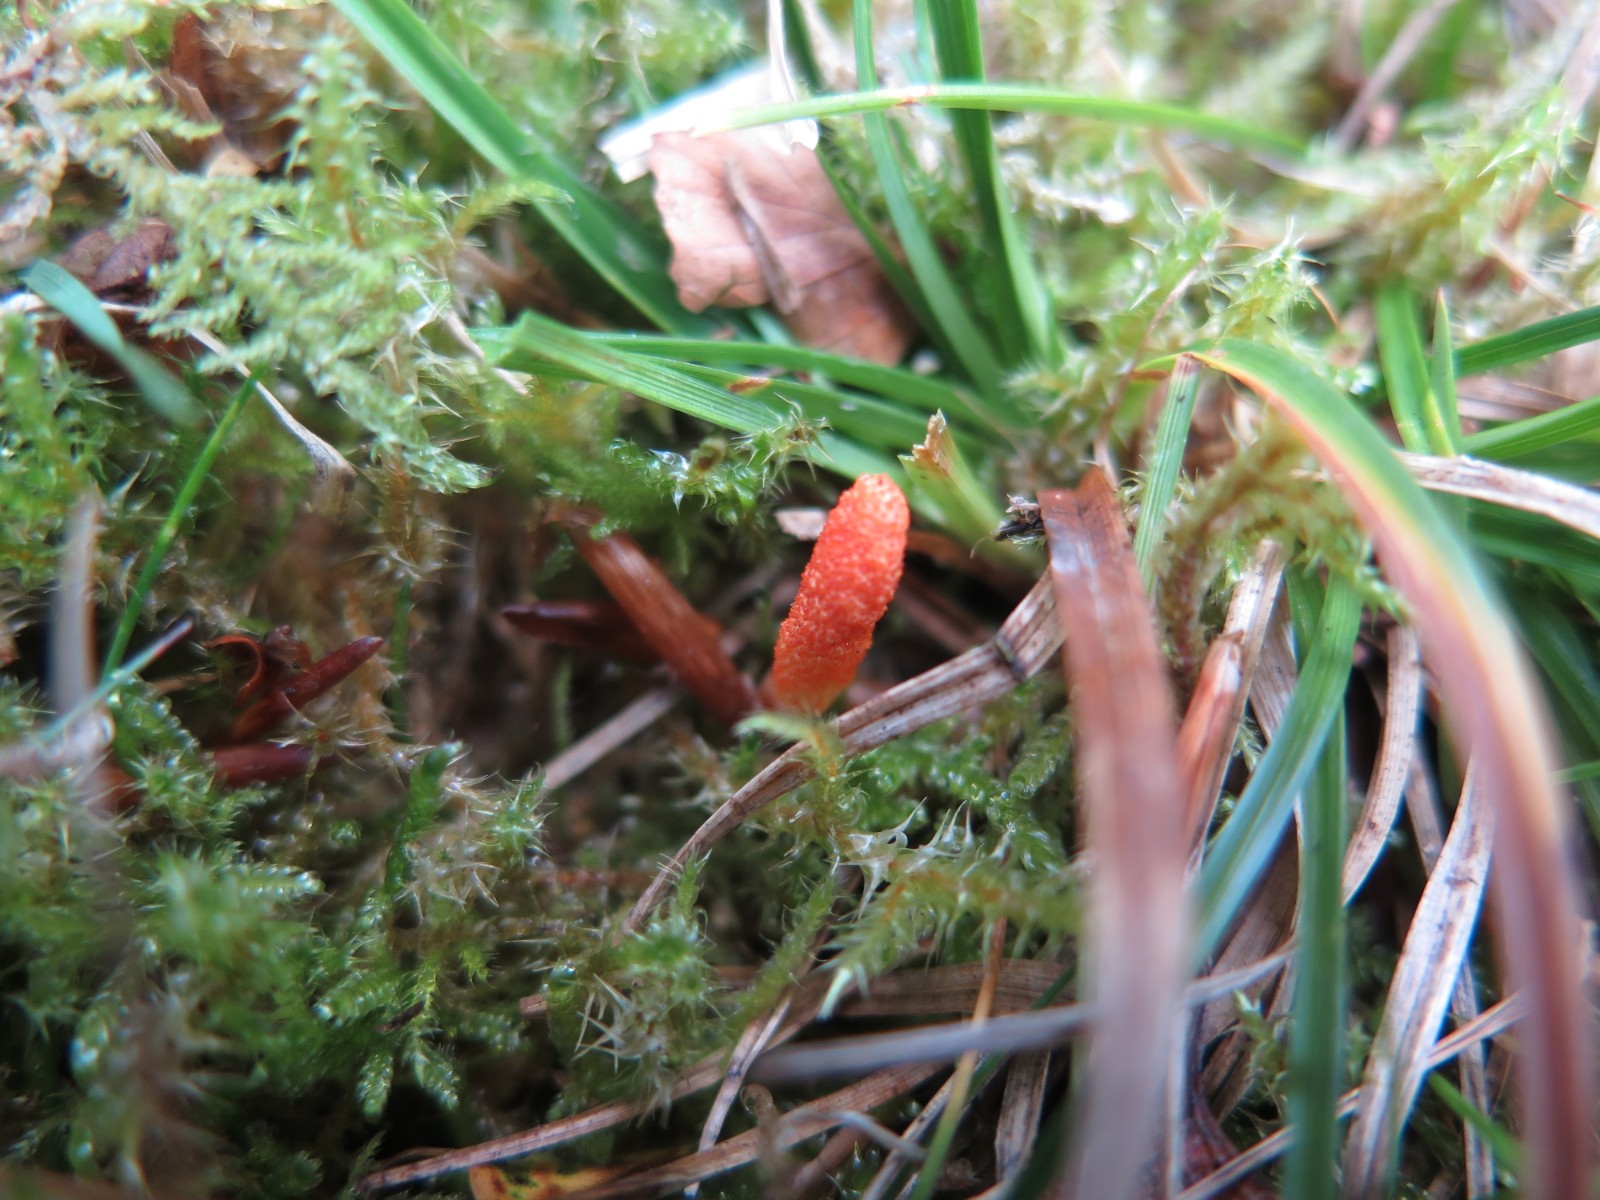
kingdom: Fungi
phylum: Ascomycota
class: Sordariomycetes
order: Hypocreales
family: Cordycipitaceae
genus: Cordyceps
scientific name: Cordyceps militaris
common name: puppe-snyltekølle
